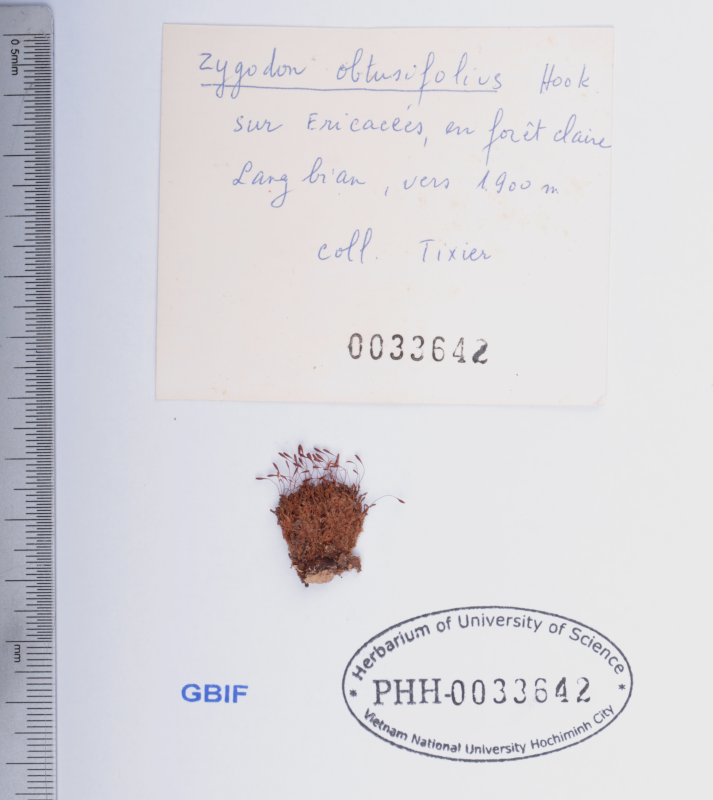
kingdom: Plantae
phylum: Bryophyta
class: Bryopsida
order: Orthotrichales
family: Orthotrichaceae
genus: Leratia
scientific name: Leratia obtusifolia
